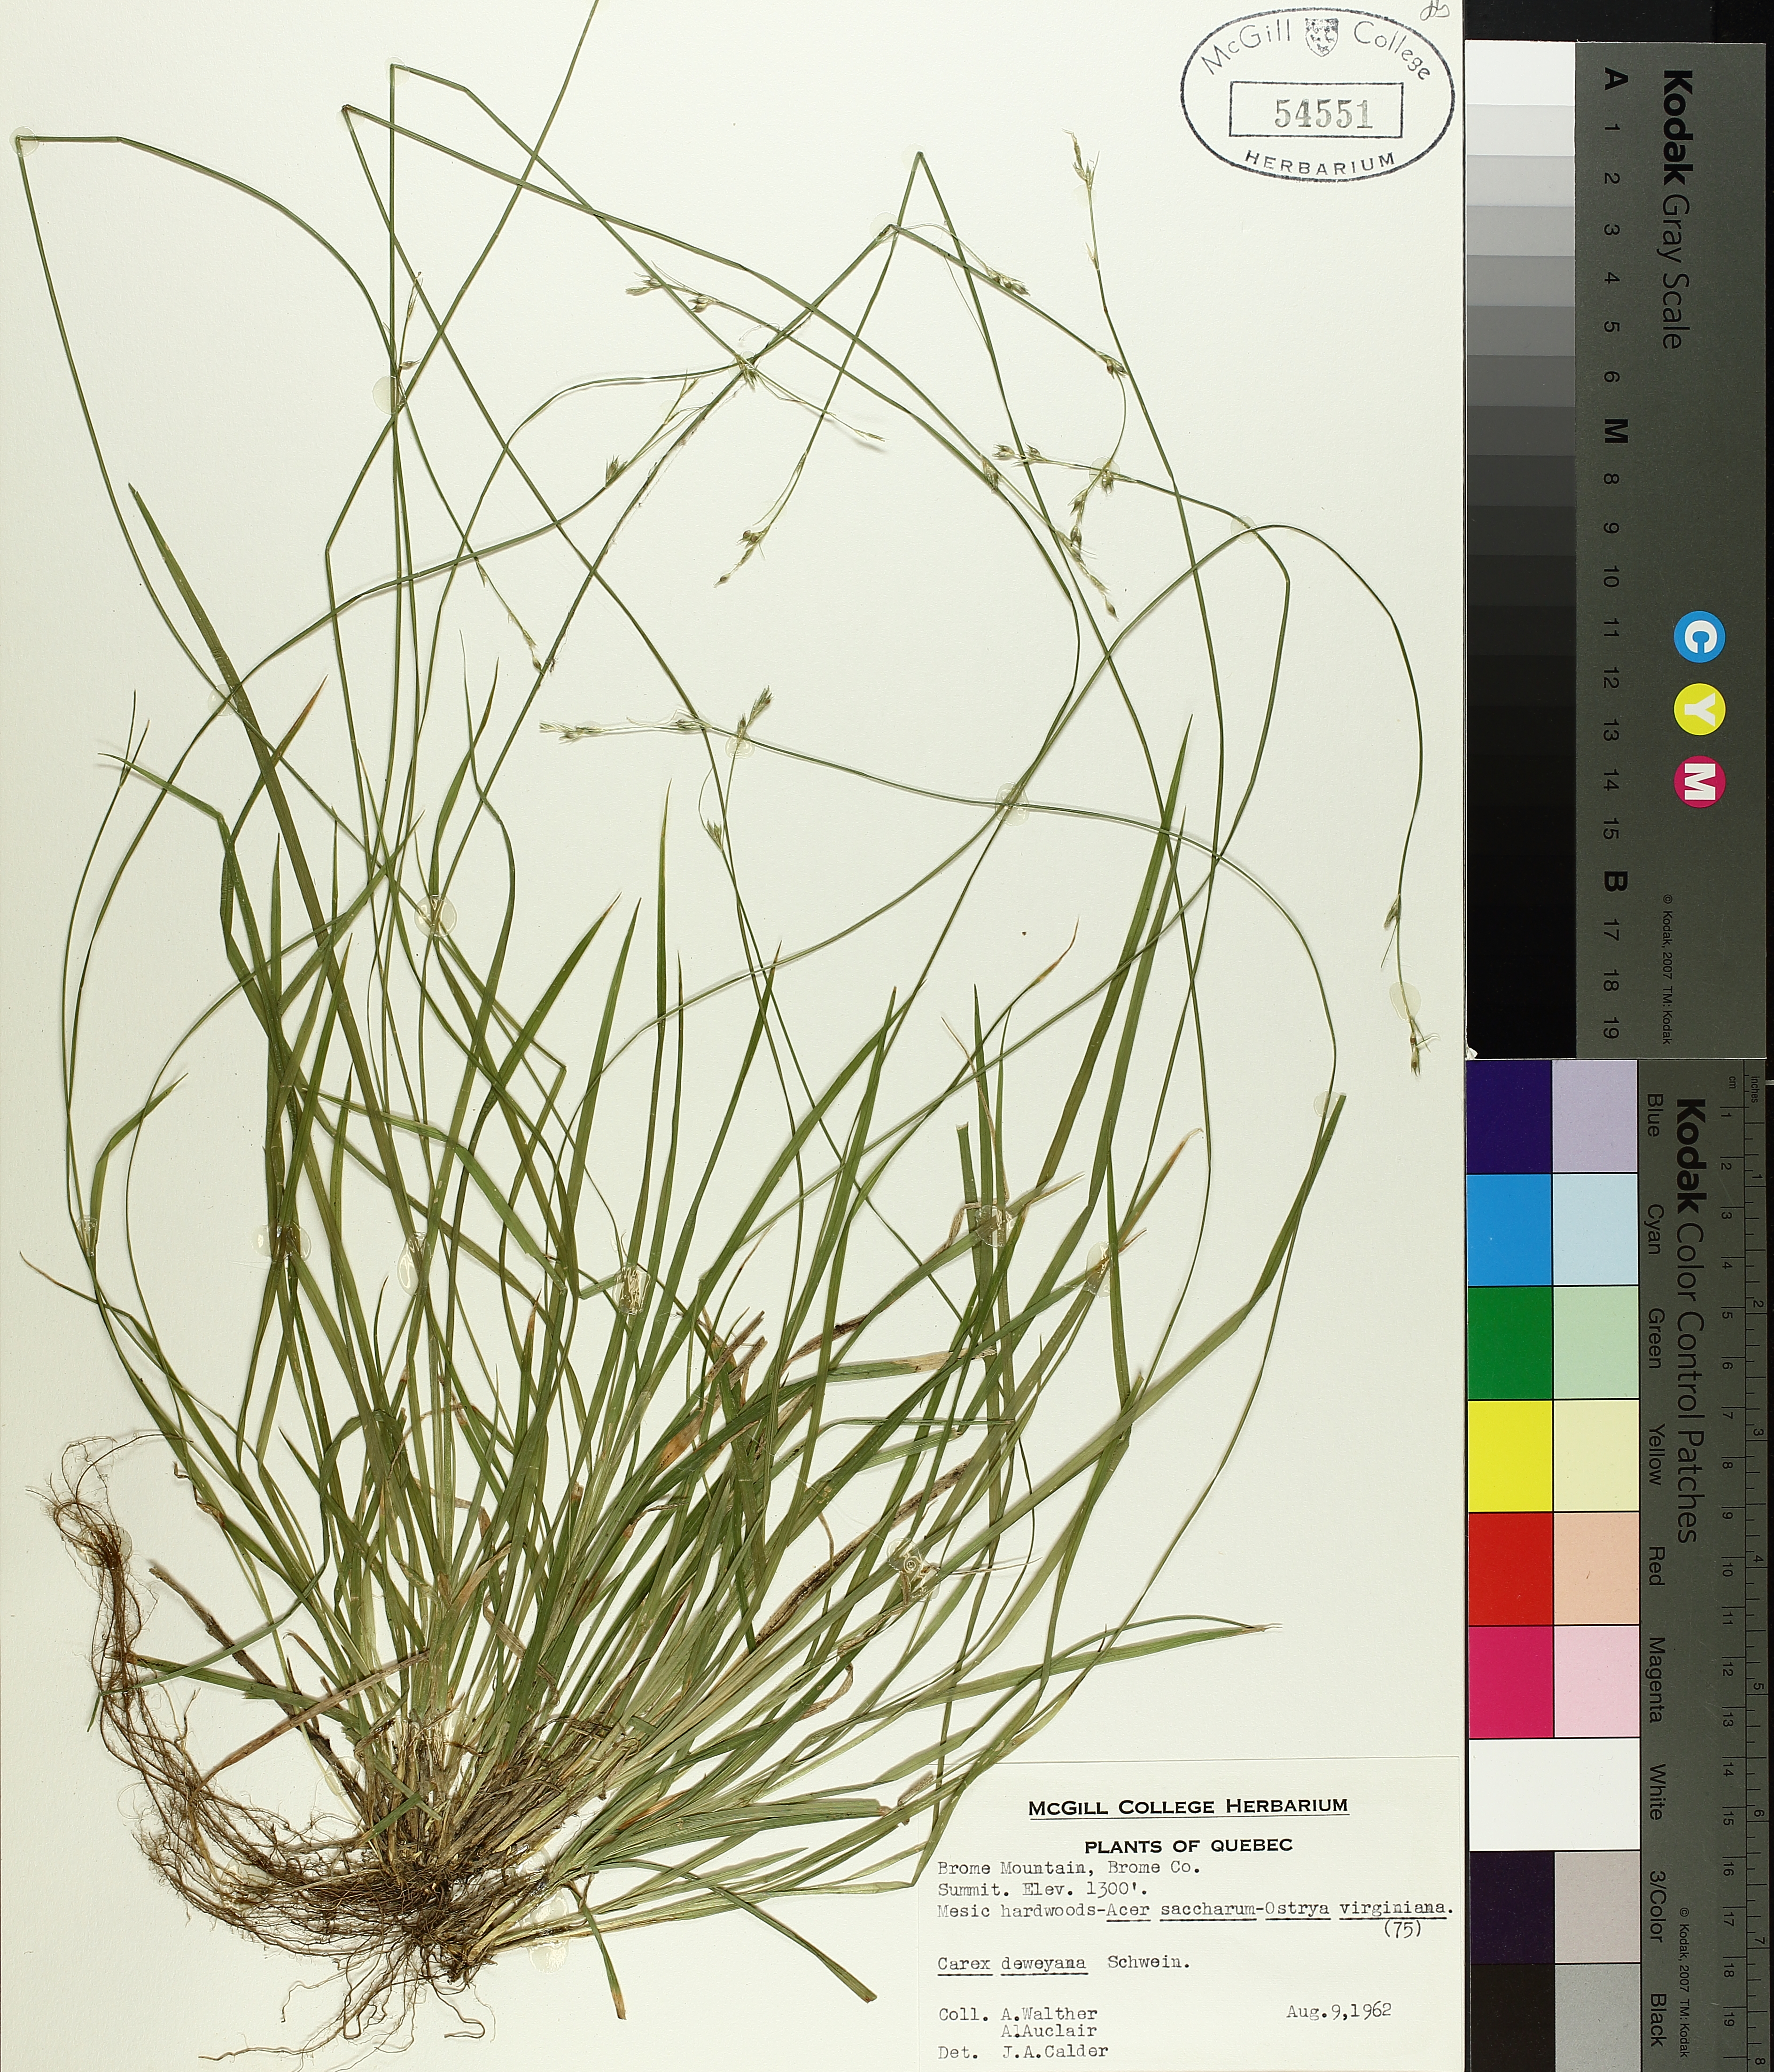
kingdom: Plantae
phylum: Tracheophyta
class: Liliopsida
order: Poales
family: Cyperaceae
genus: Carex
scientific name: Carex deweyana
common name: Dewey's sedge
